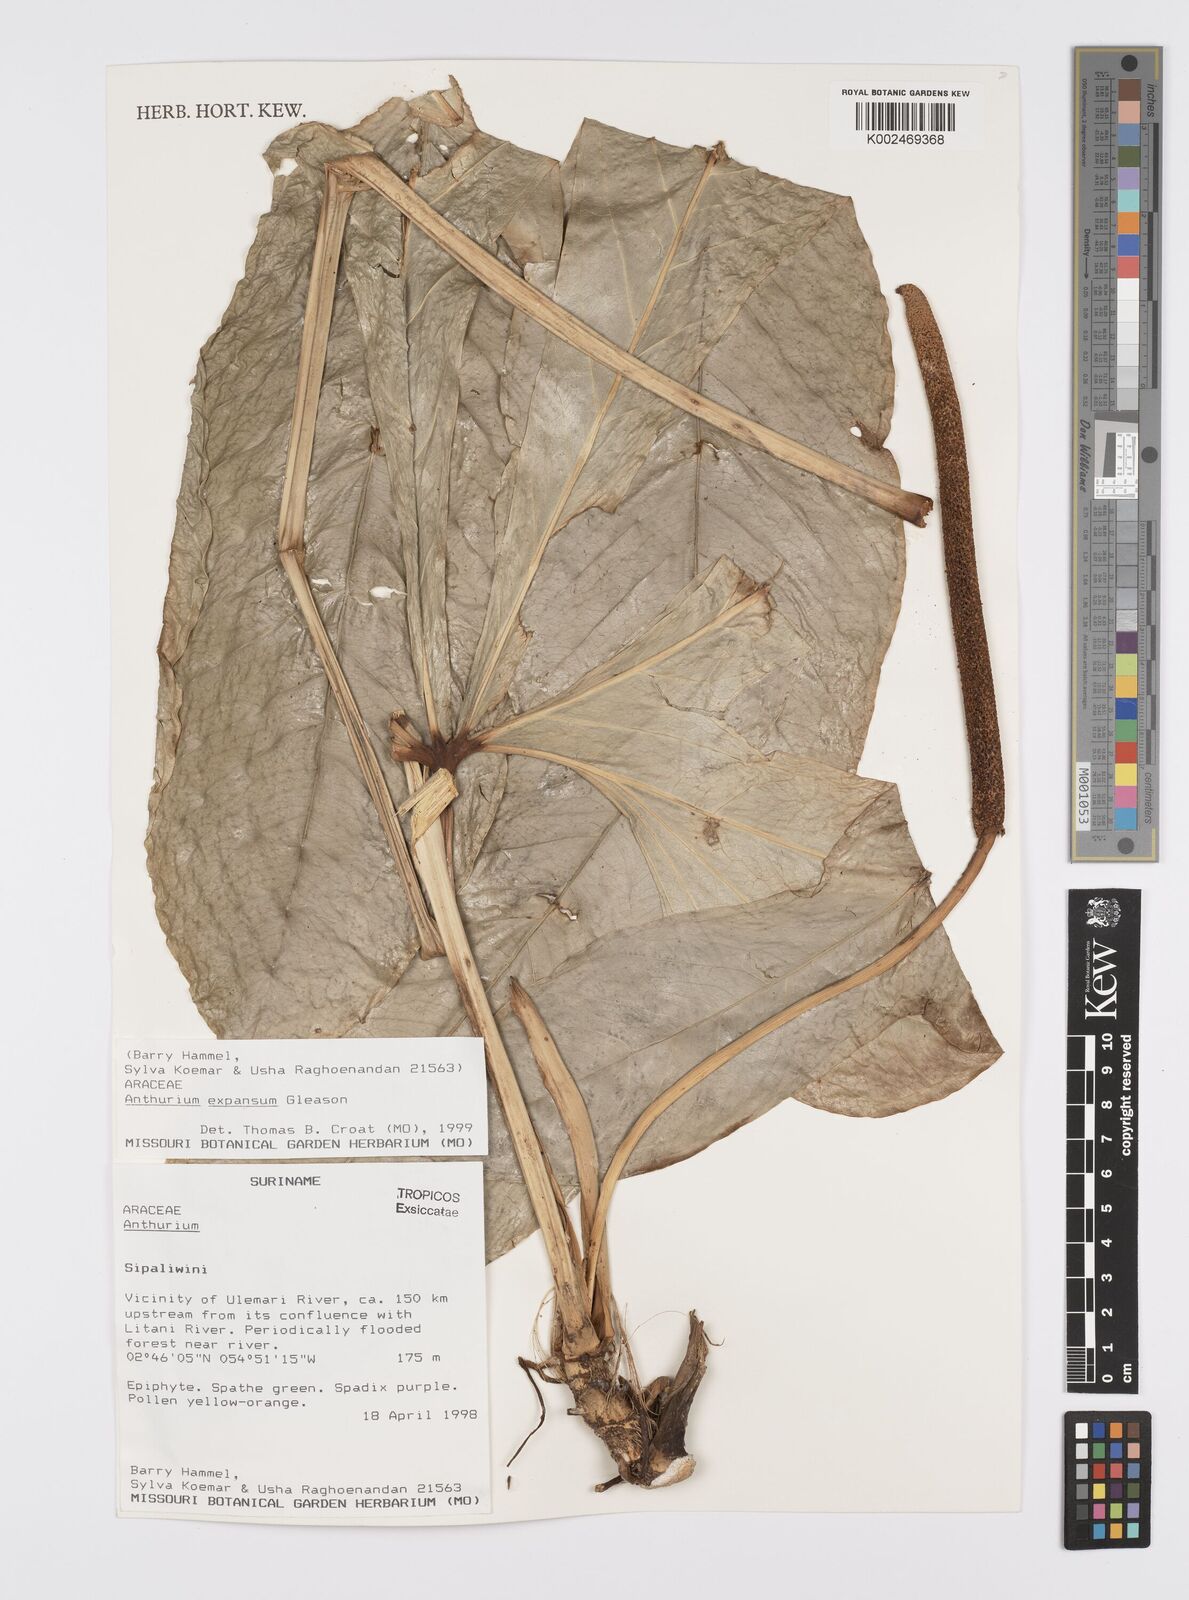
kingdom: Plantae
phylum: Tracheophyta
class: Liliopsida
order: Alismatales
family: Araceae
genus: Anthurium
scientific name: Anthurium expansum
